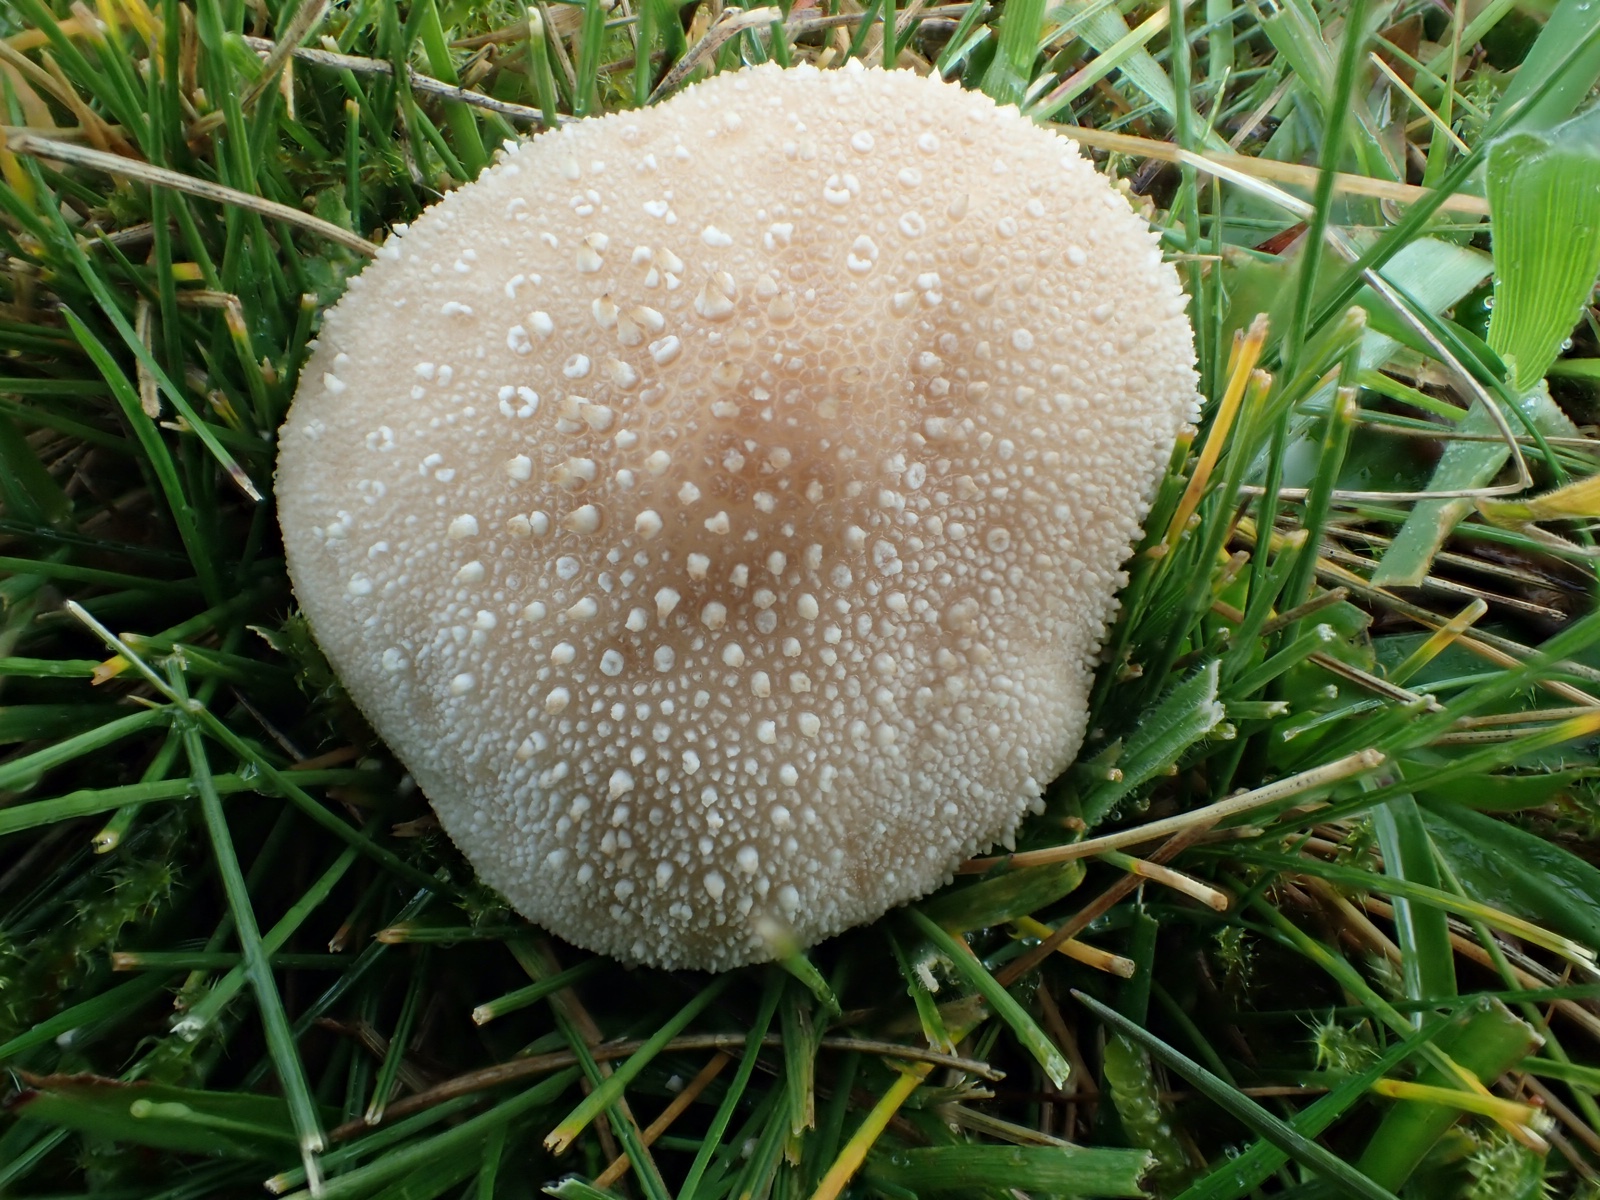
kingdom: Fungi
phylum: Basidiomycota
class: Agaricomycetes
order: Agaricales
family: Lycoperdaceae
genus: Lycoperdon
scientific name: Lycoperdon perlatum
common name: krystal-støvbold
